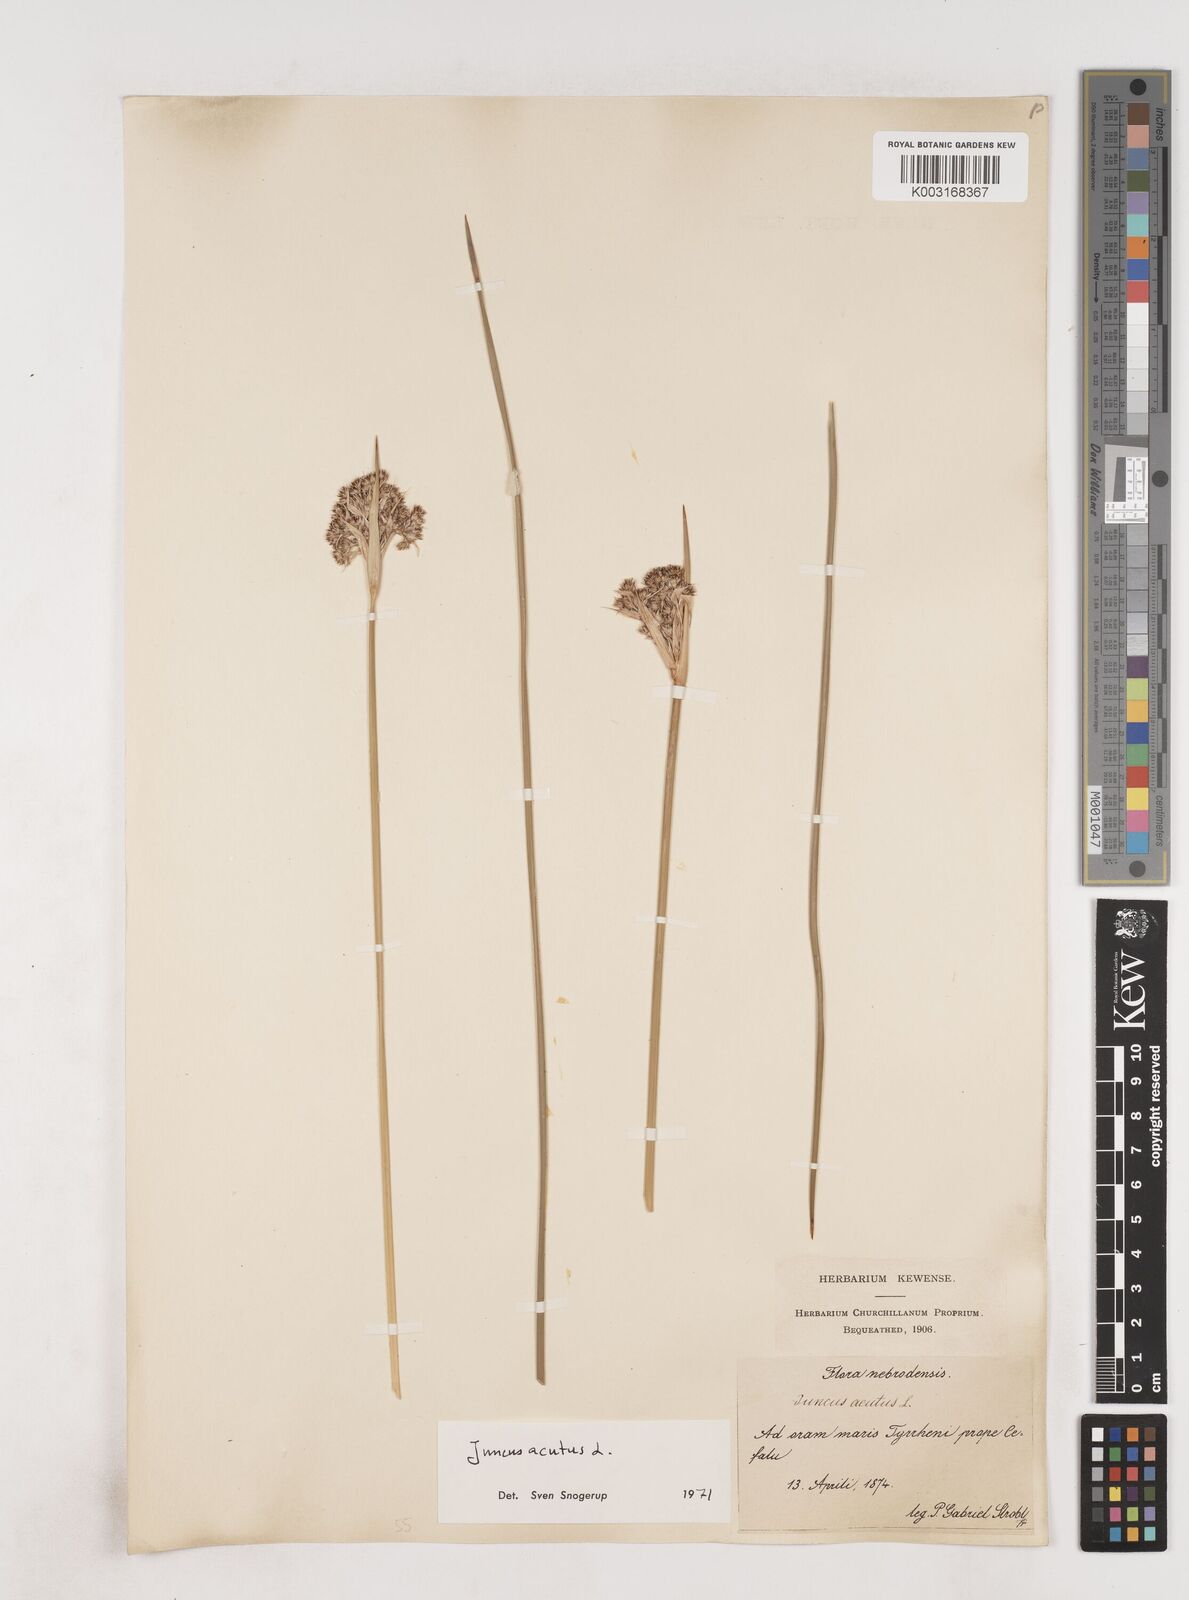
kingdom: Plantae
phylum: Tracheophyta
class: Liliopsida
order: Poales
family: Juncaceae
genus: Juncus
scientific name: Juncus acutus
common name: Sharp rush
